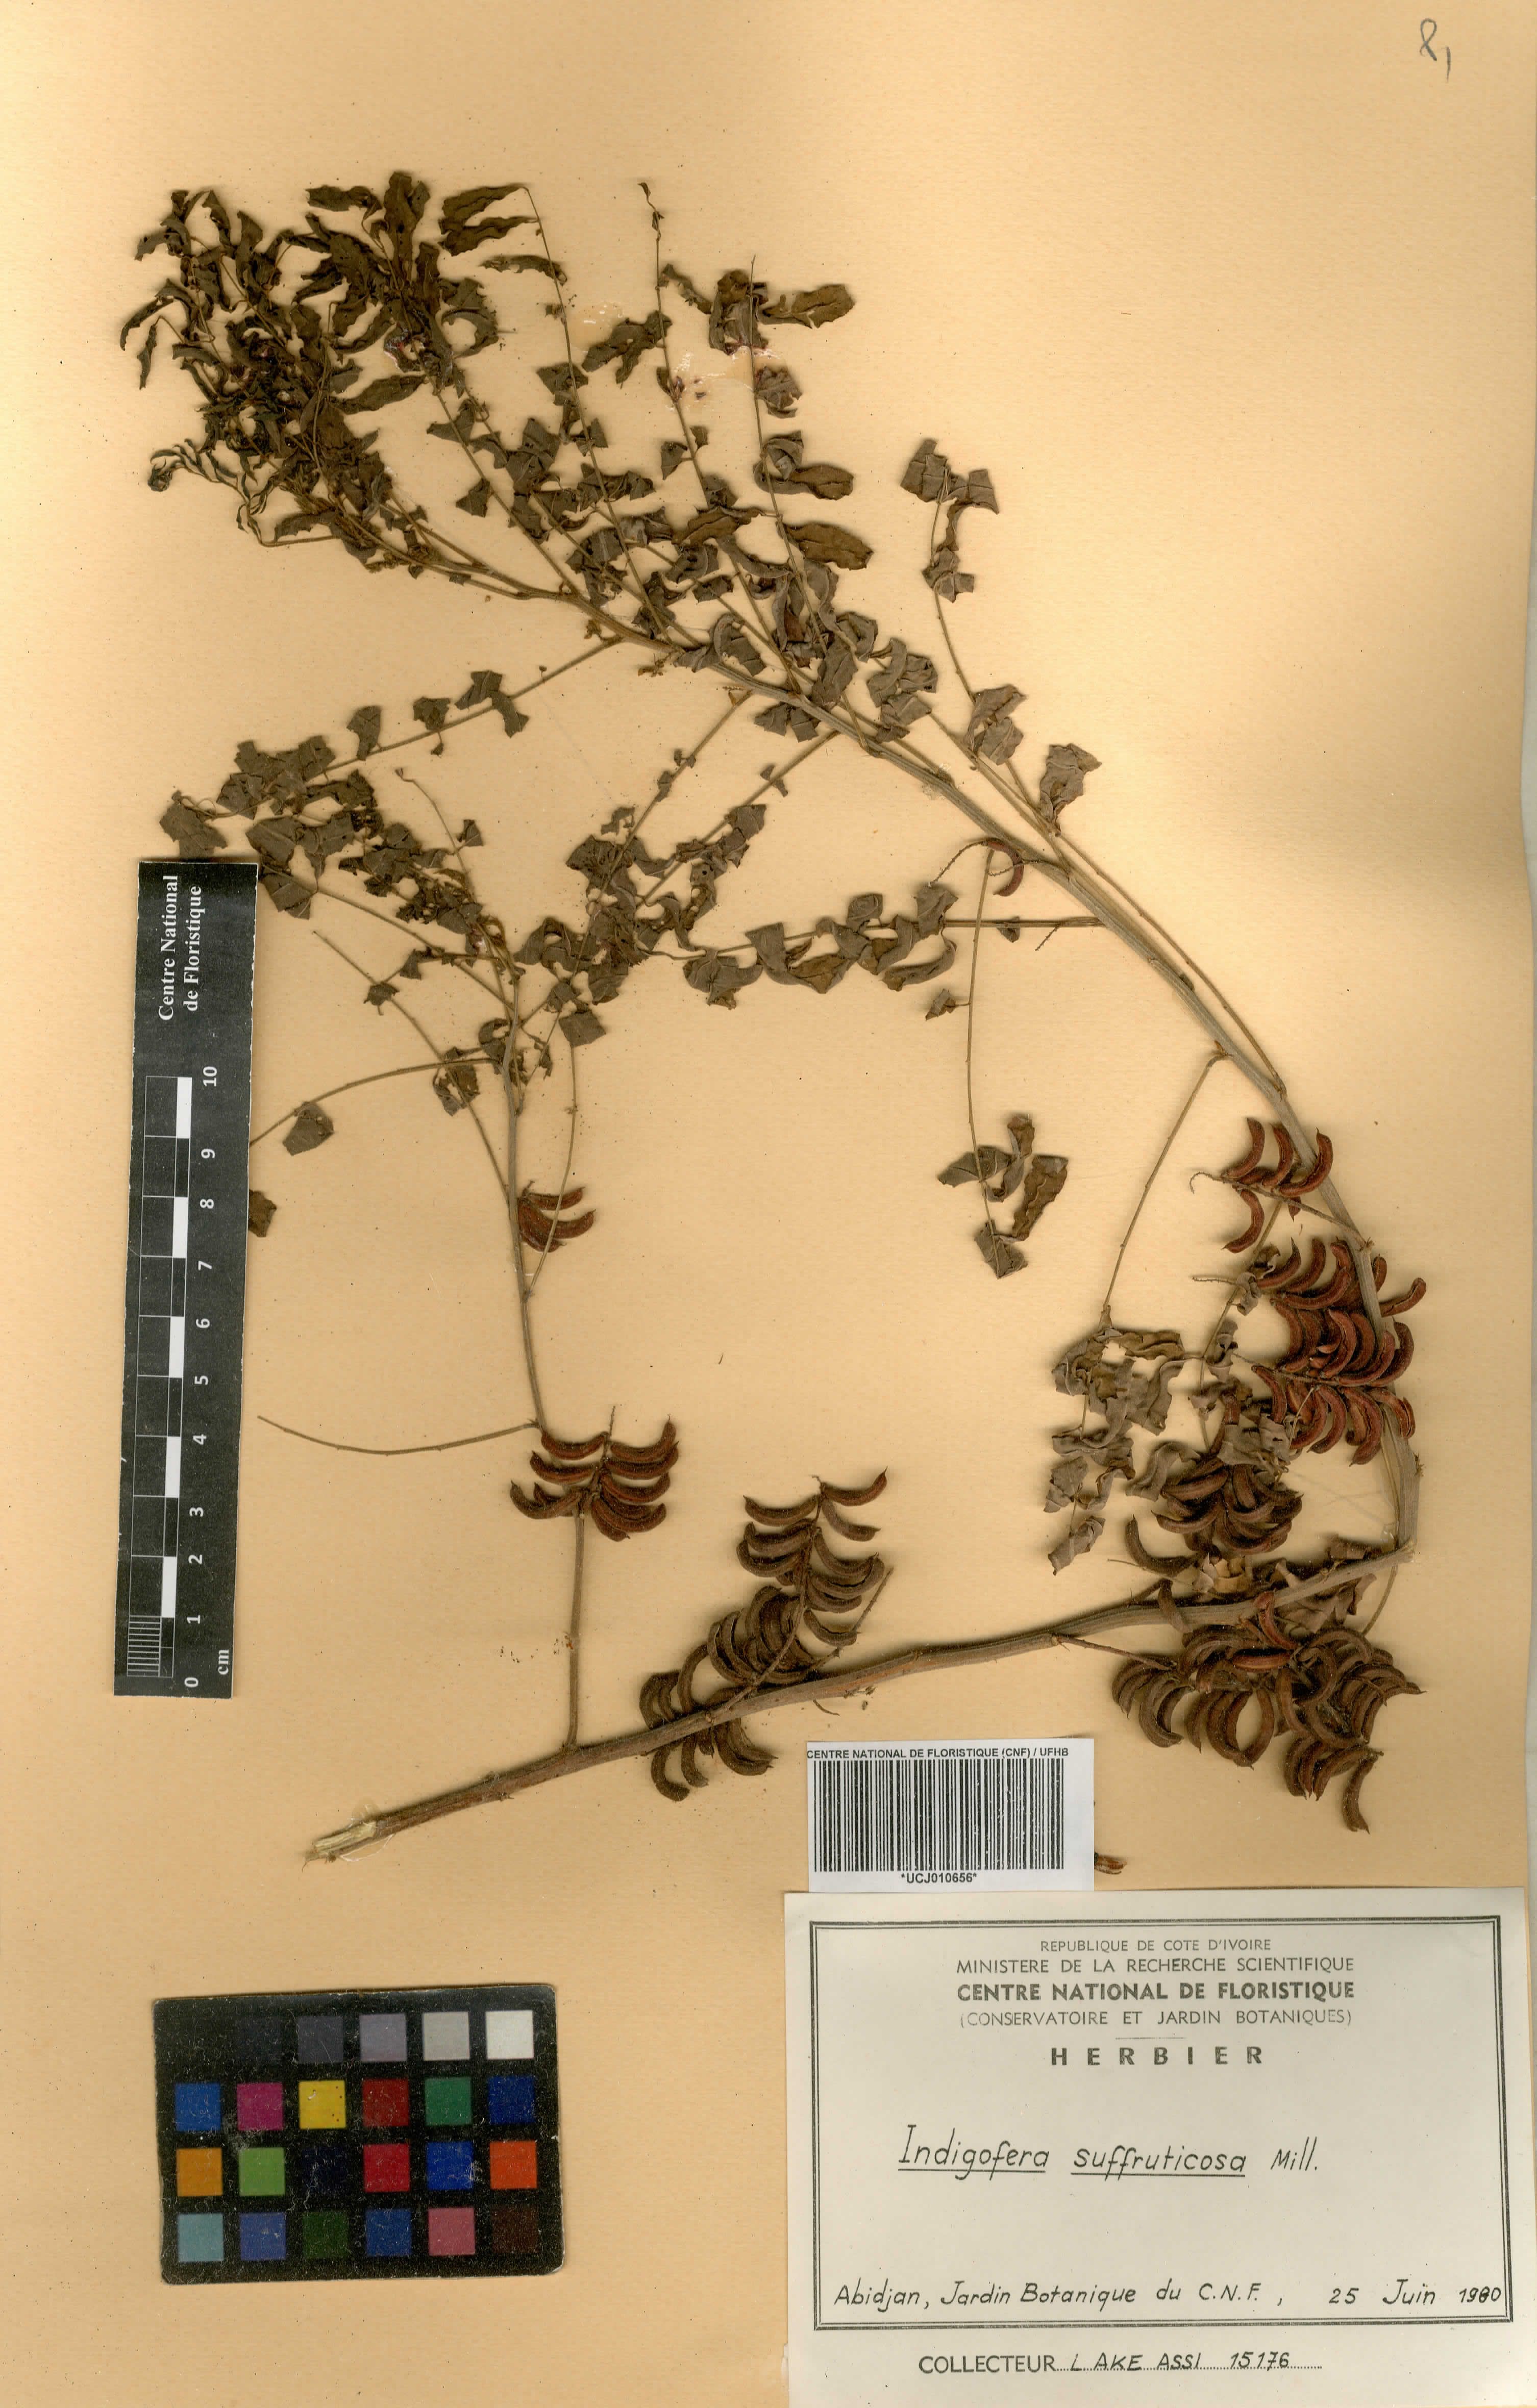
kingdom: Plantae
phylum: Tracheophyta
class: Magnoliopsida
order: Fabales
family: Fabaceae
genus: Indigofera
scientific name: Indigofera suffruticosa
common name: Anil de pasto
